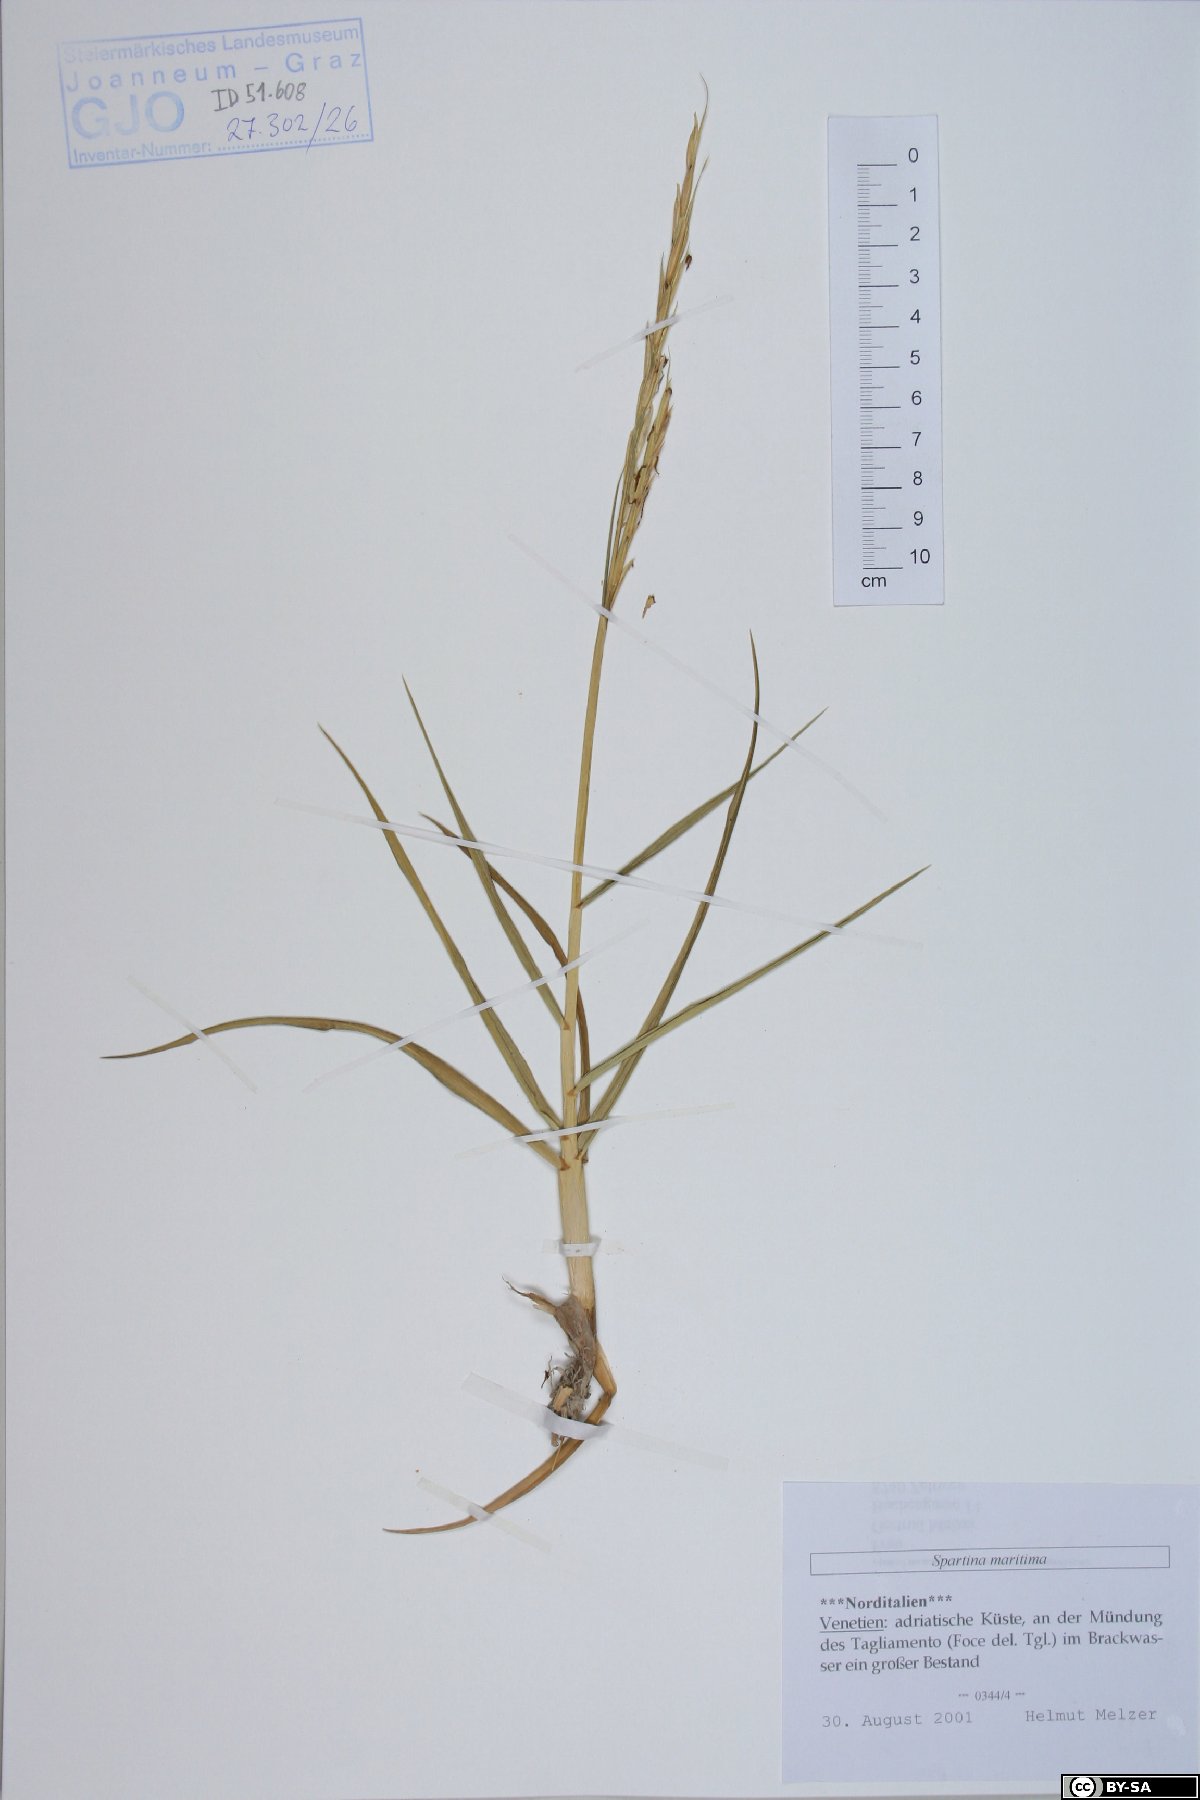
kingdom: Plantae
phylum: Tracheophyta
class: Liliopsida
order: Poales
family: Poaceae
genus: Sporobolus
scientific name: Sporobolus maritimus
